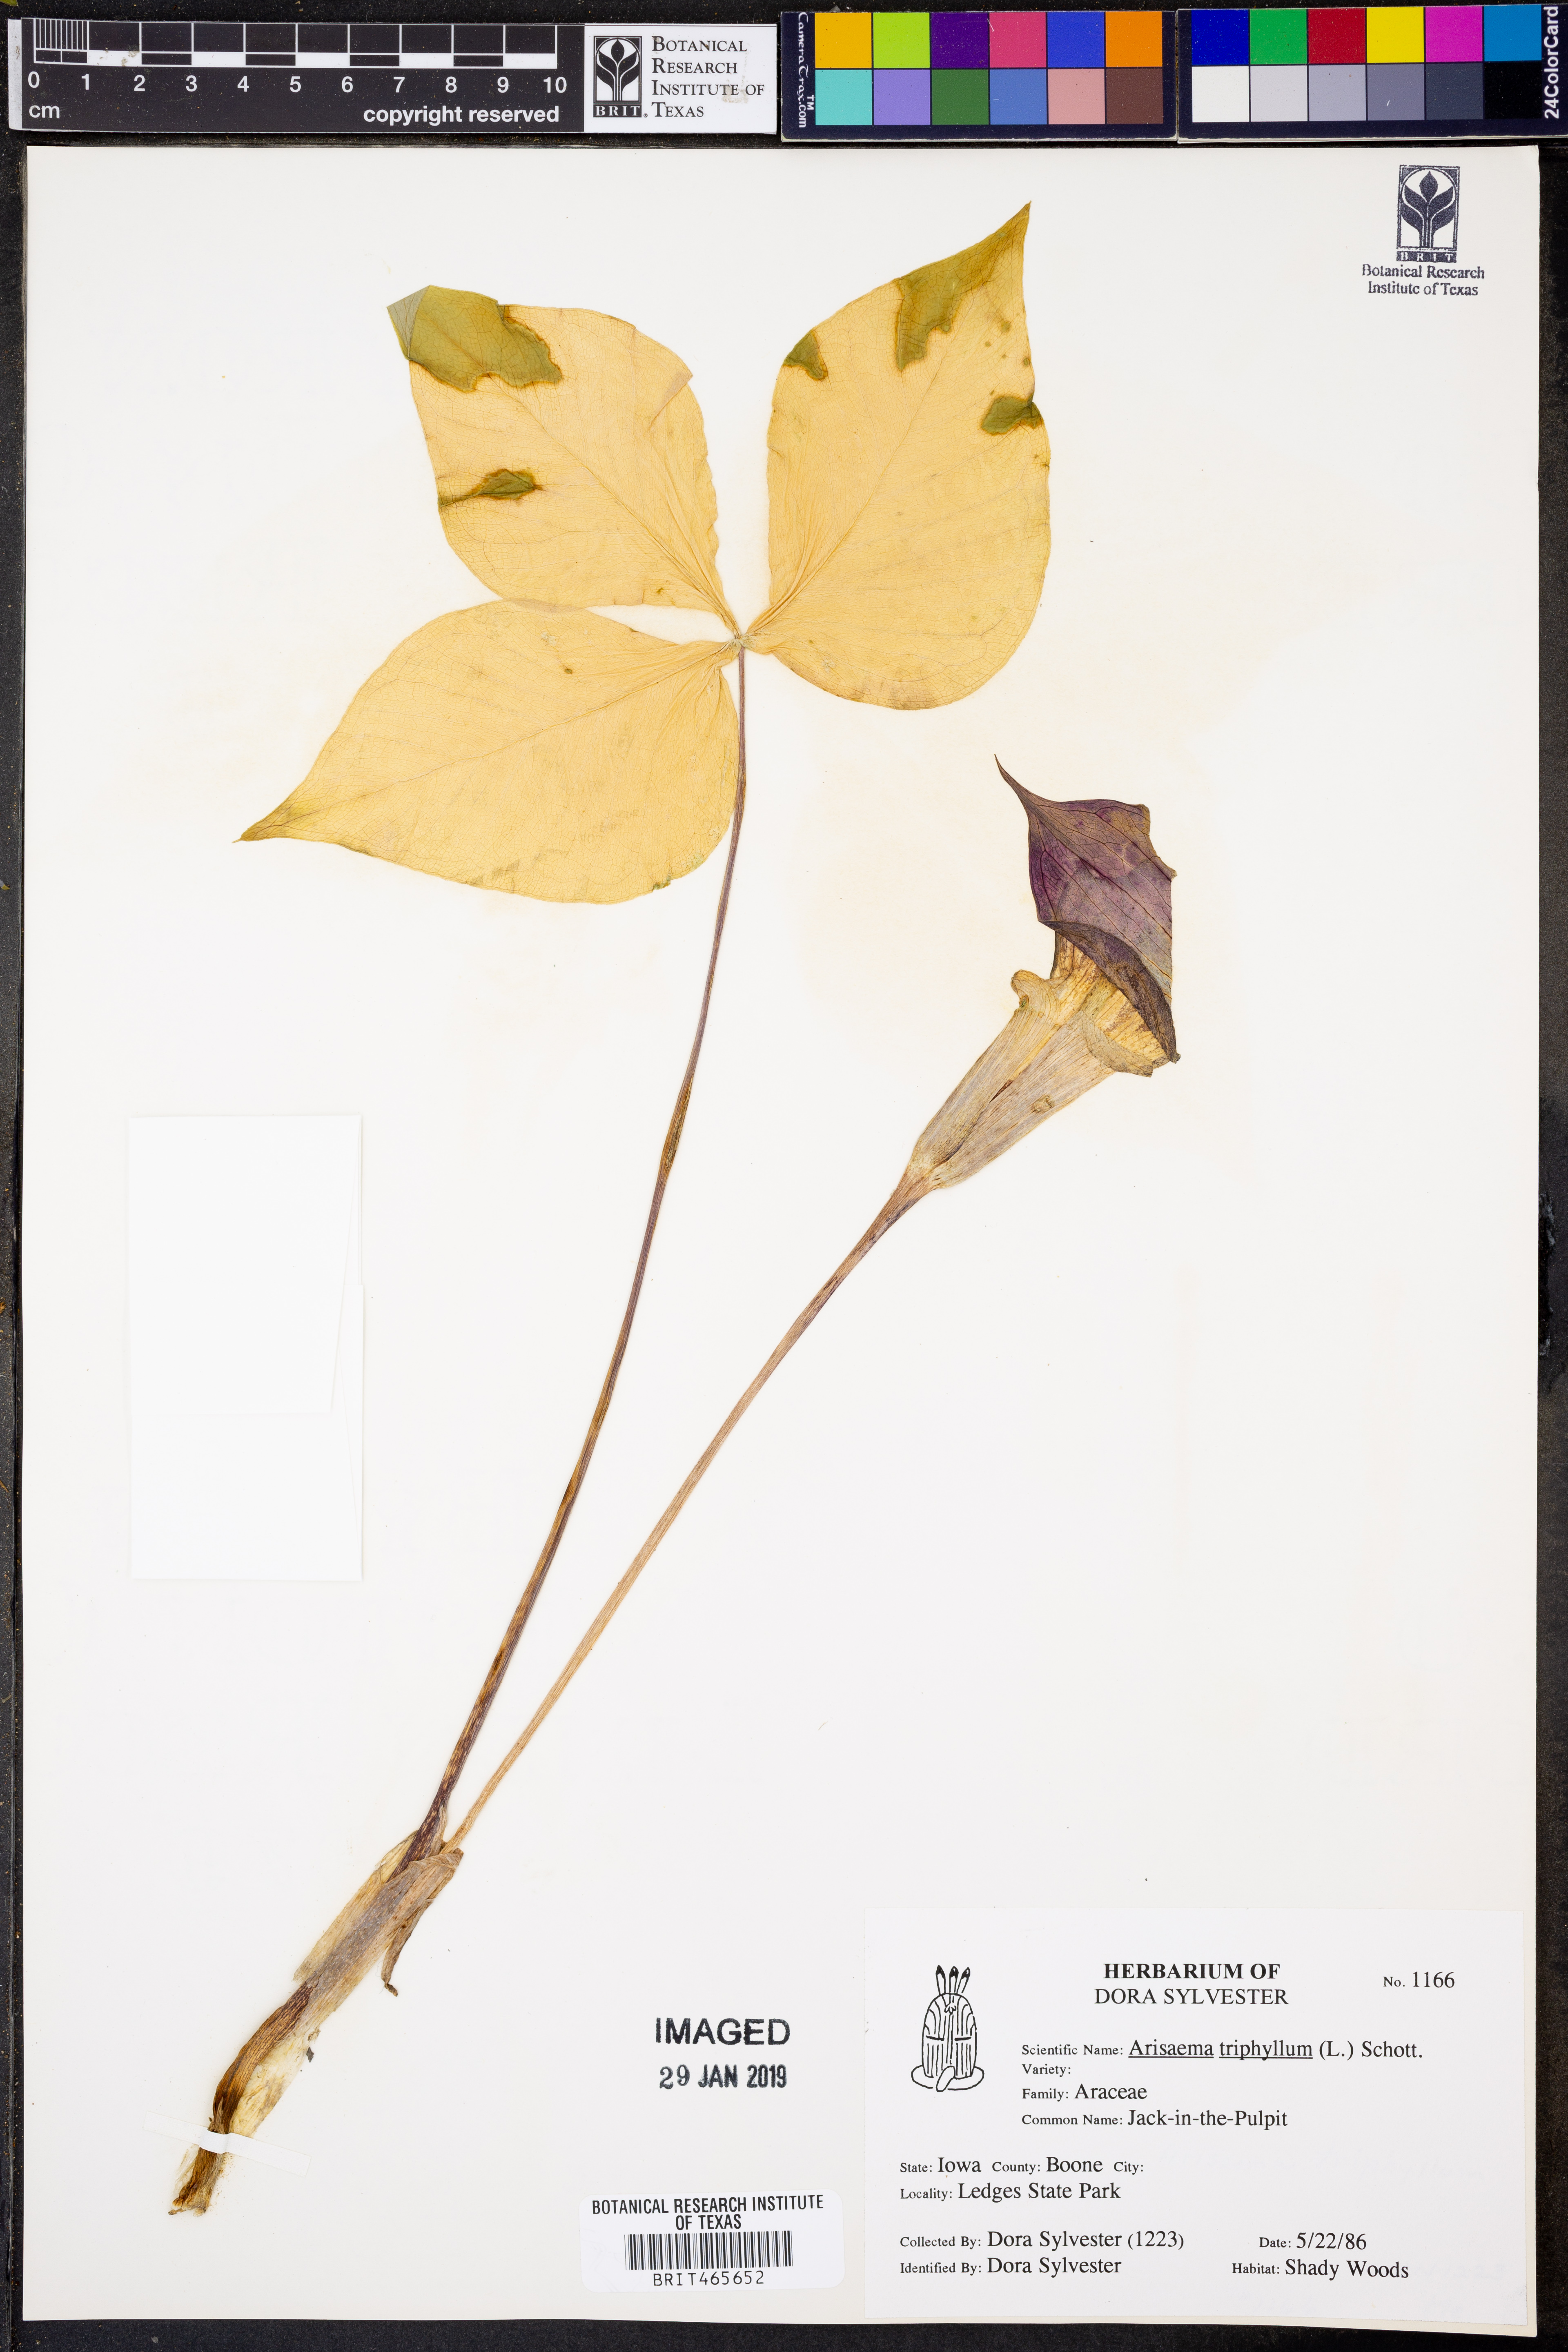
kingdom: Plantae
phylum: Tracheophyta
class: Liliopsida
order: Alismatales
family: Araceae
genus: Arisaema
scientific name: Arisaema triphyllum
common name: Jack-in-the-pulpit
